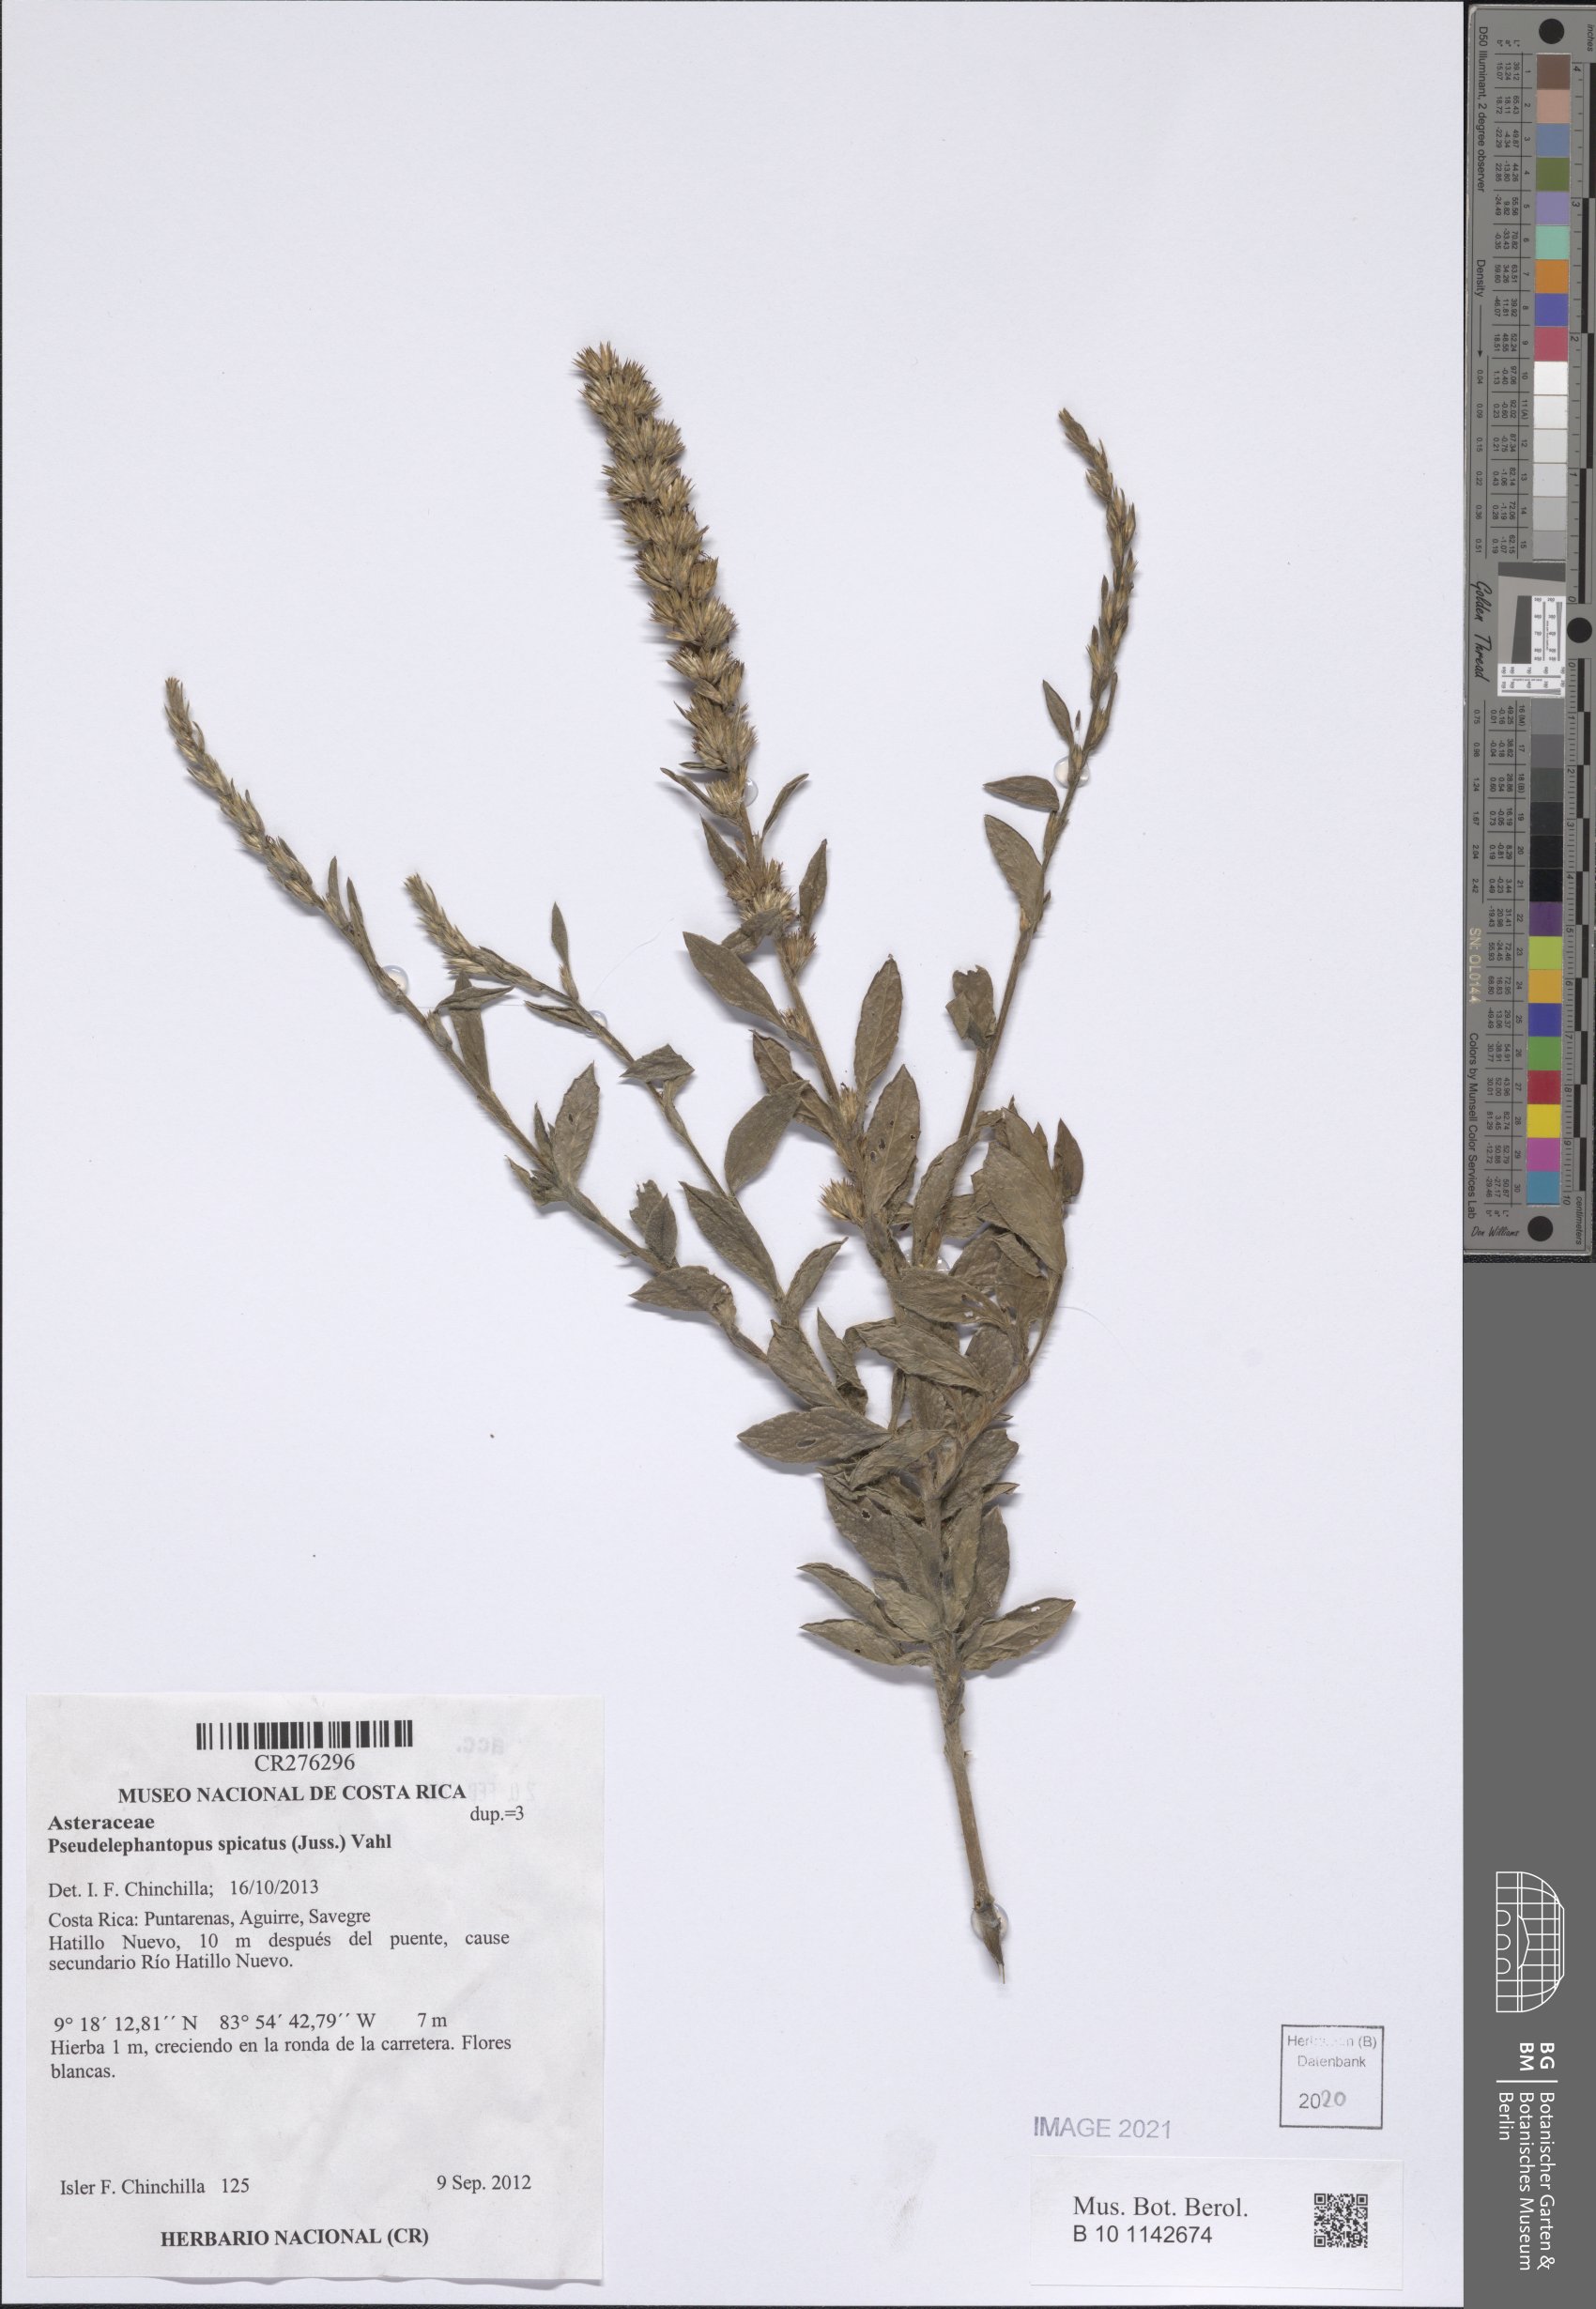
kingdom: Plantae
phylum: Tracheophyta
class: Magnoliopsida
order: Asterales
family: Asteraceae
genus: Pseudelephantopus
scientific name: Pseudelephantopus spicatus
